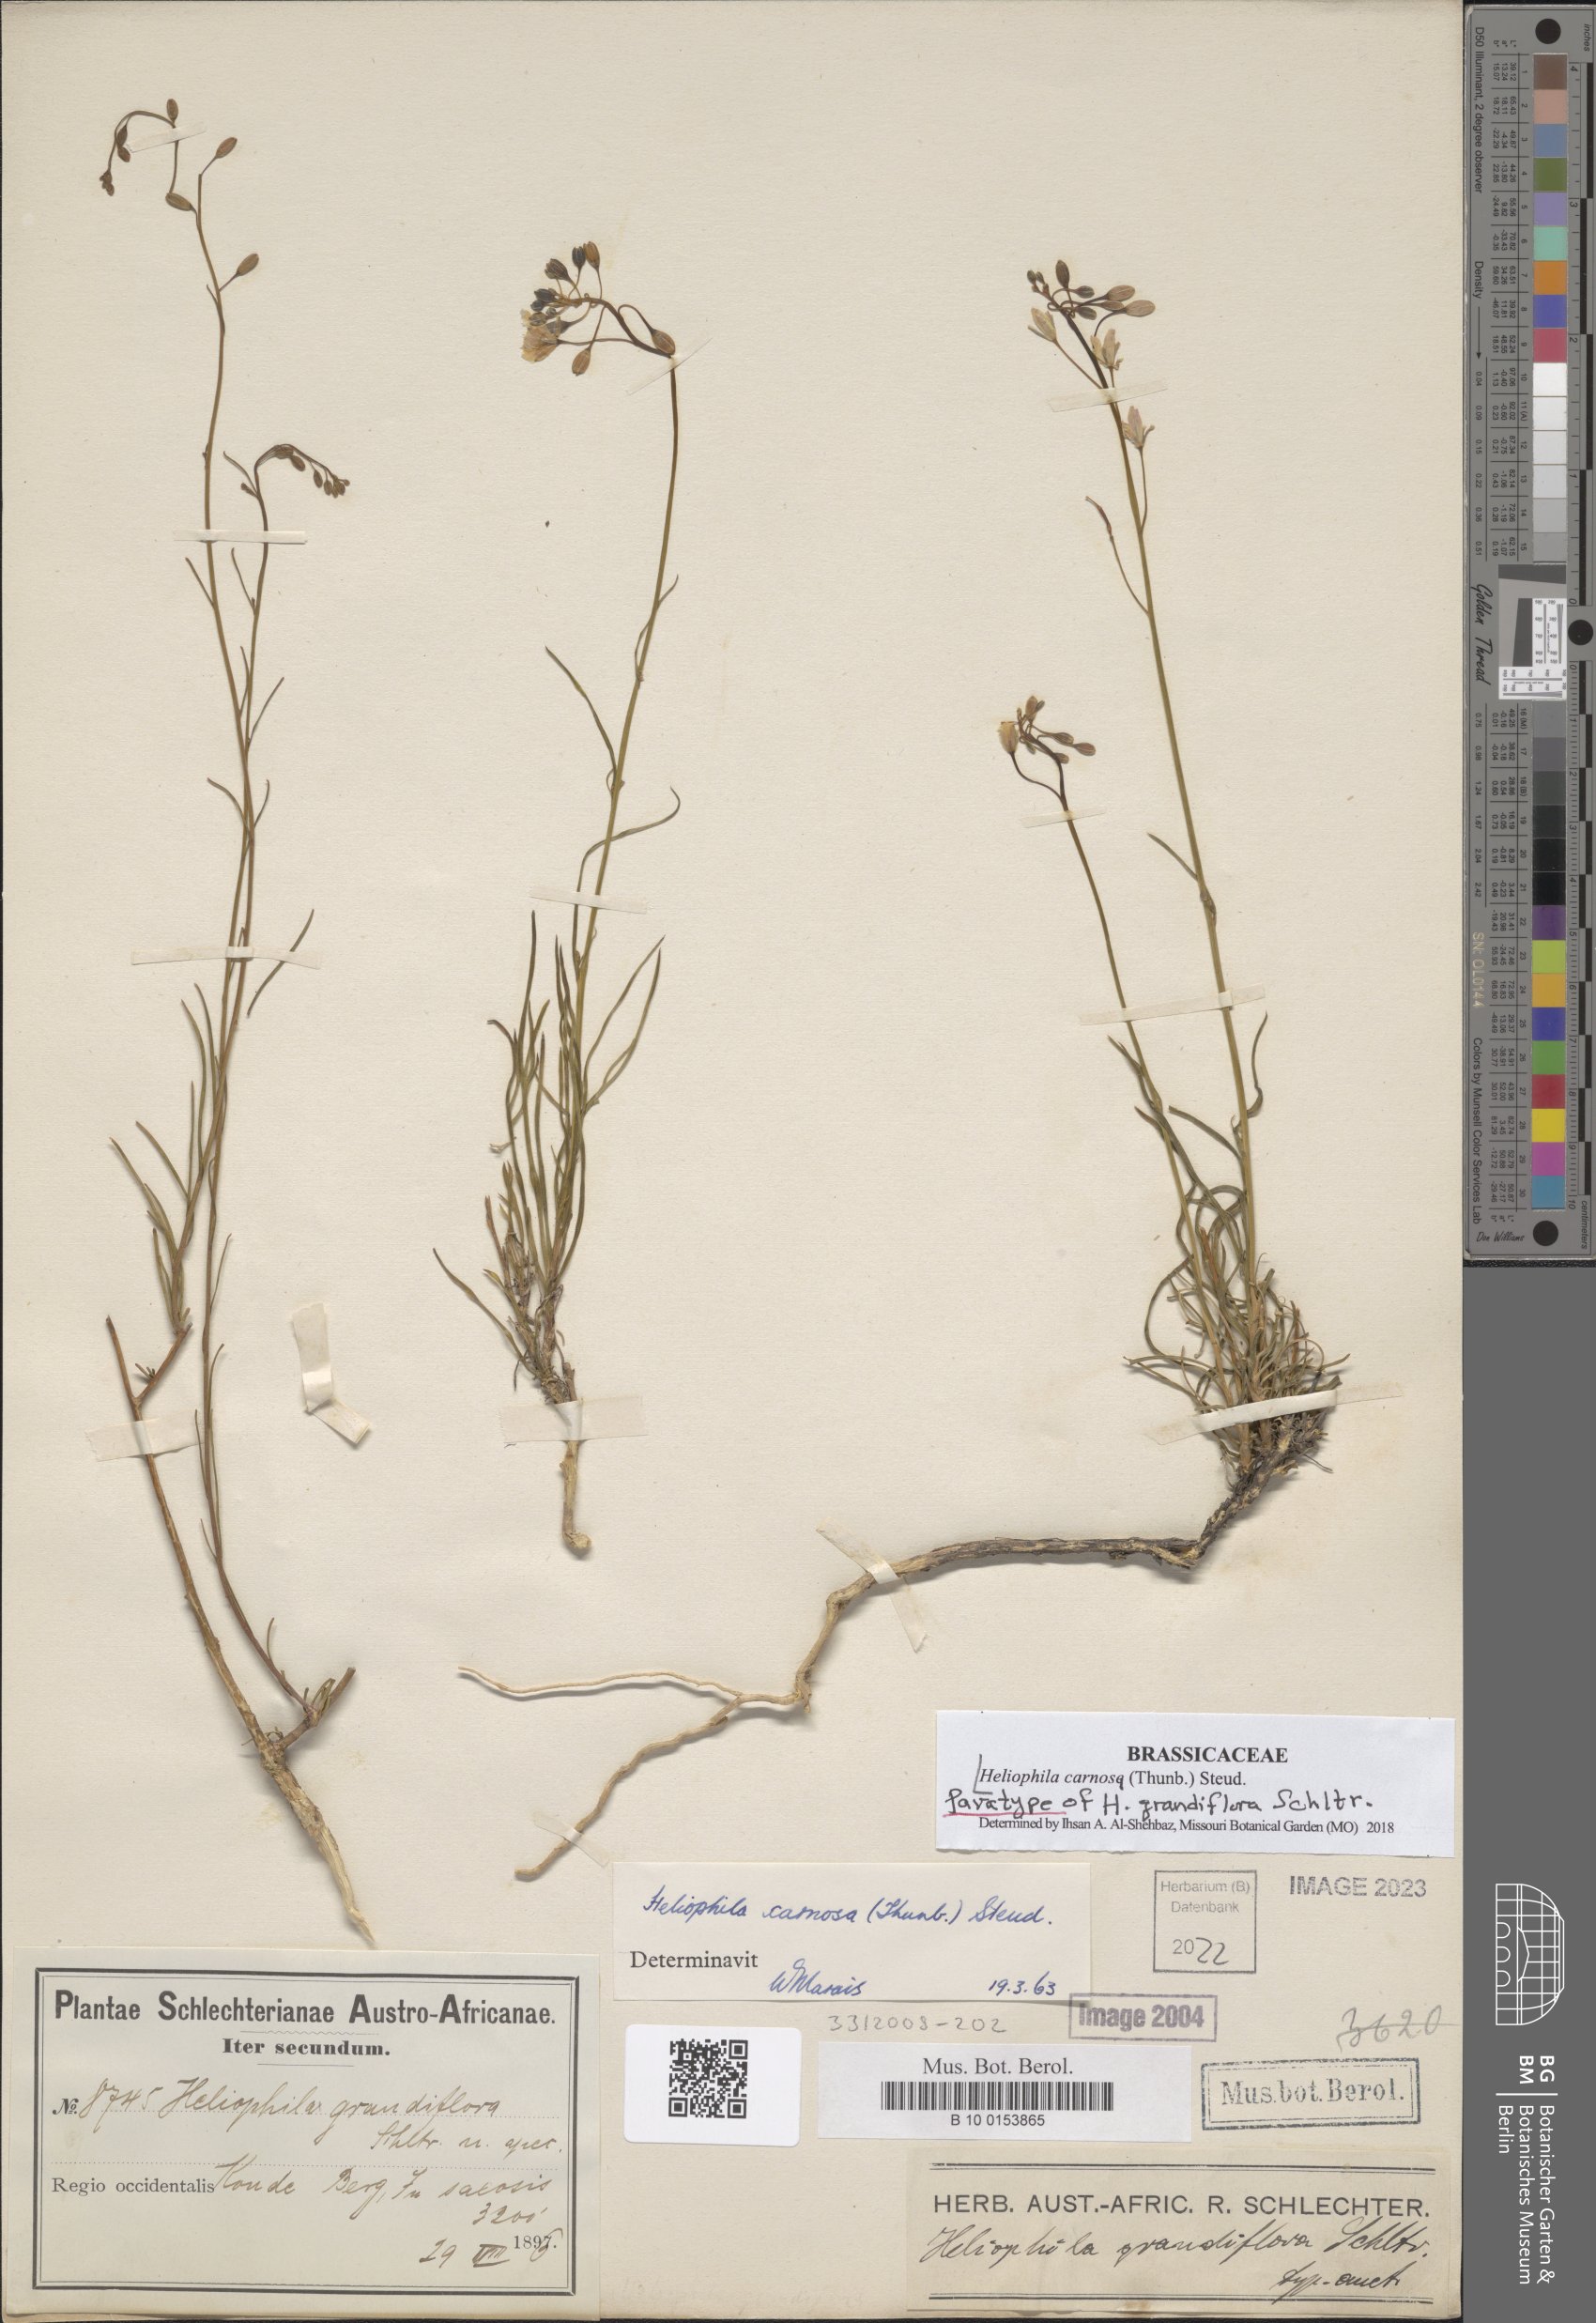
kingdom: Plantae
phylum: Tracheophyta
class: Magnoliopsida
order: Brassicales
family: Brassicaceae
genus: Heliophila
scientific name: Heliophila carnosa
